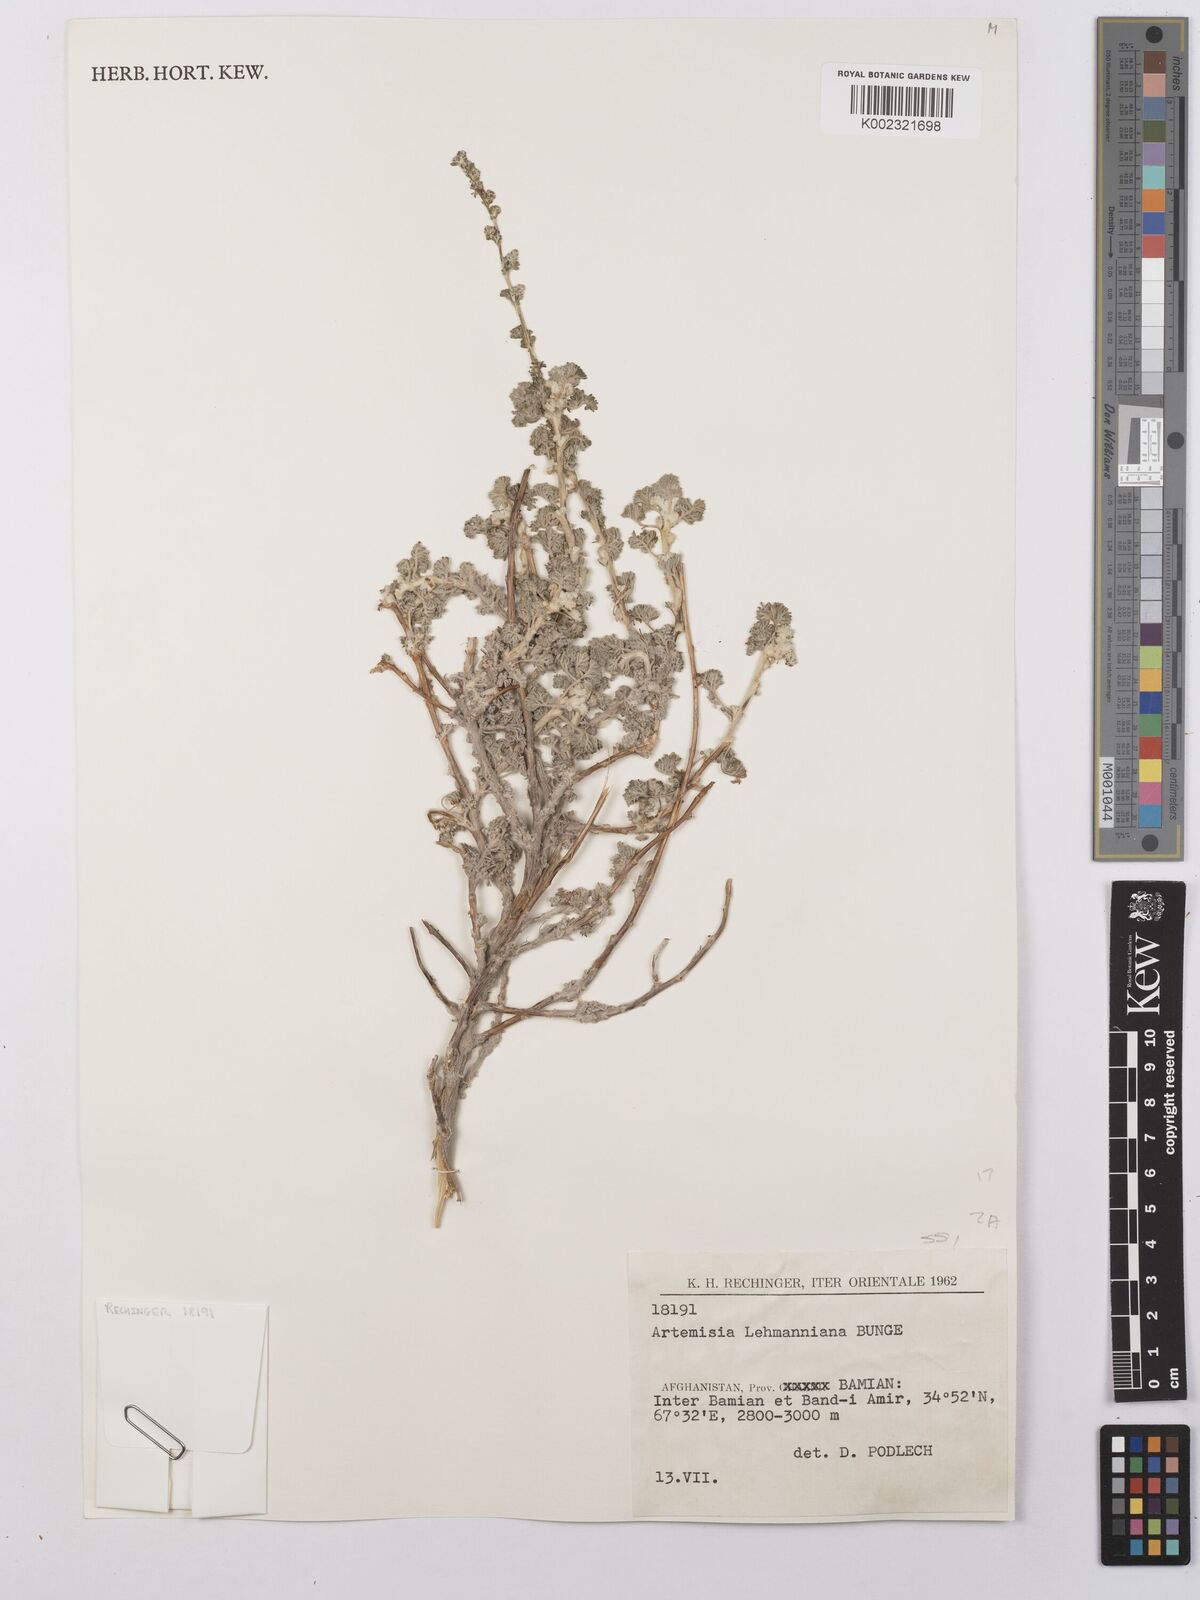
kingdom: Plantae
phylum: Tracheophyta
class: Magnoliopsida
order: Asterales
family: Asteraceae
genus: Artemisia
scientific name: Artemisia lehmanniana
